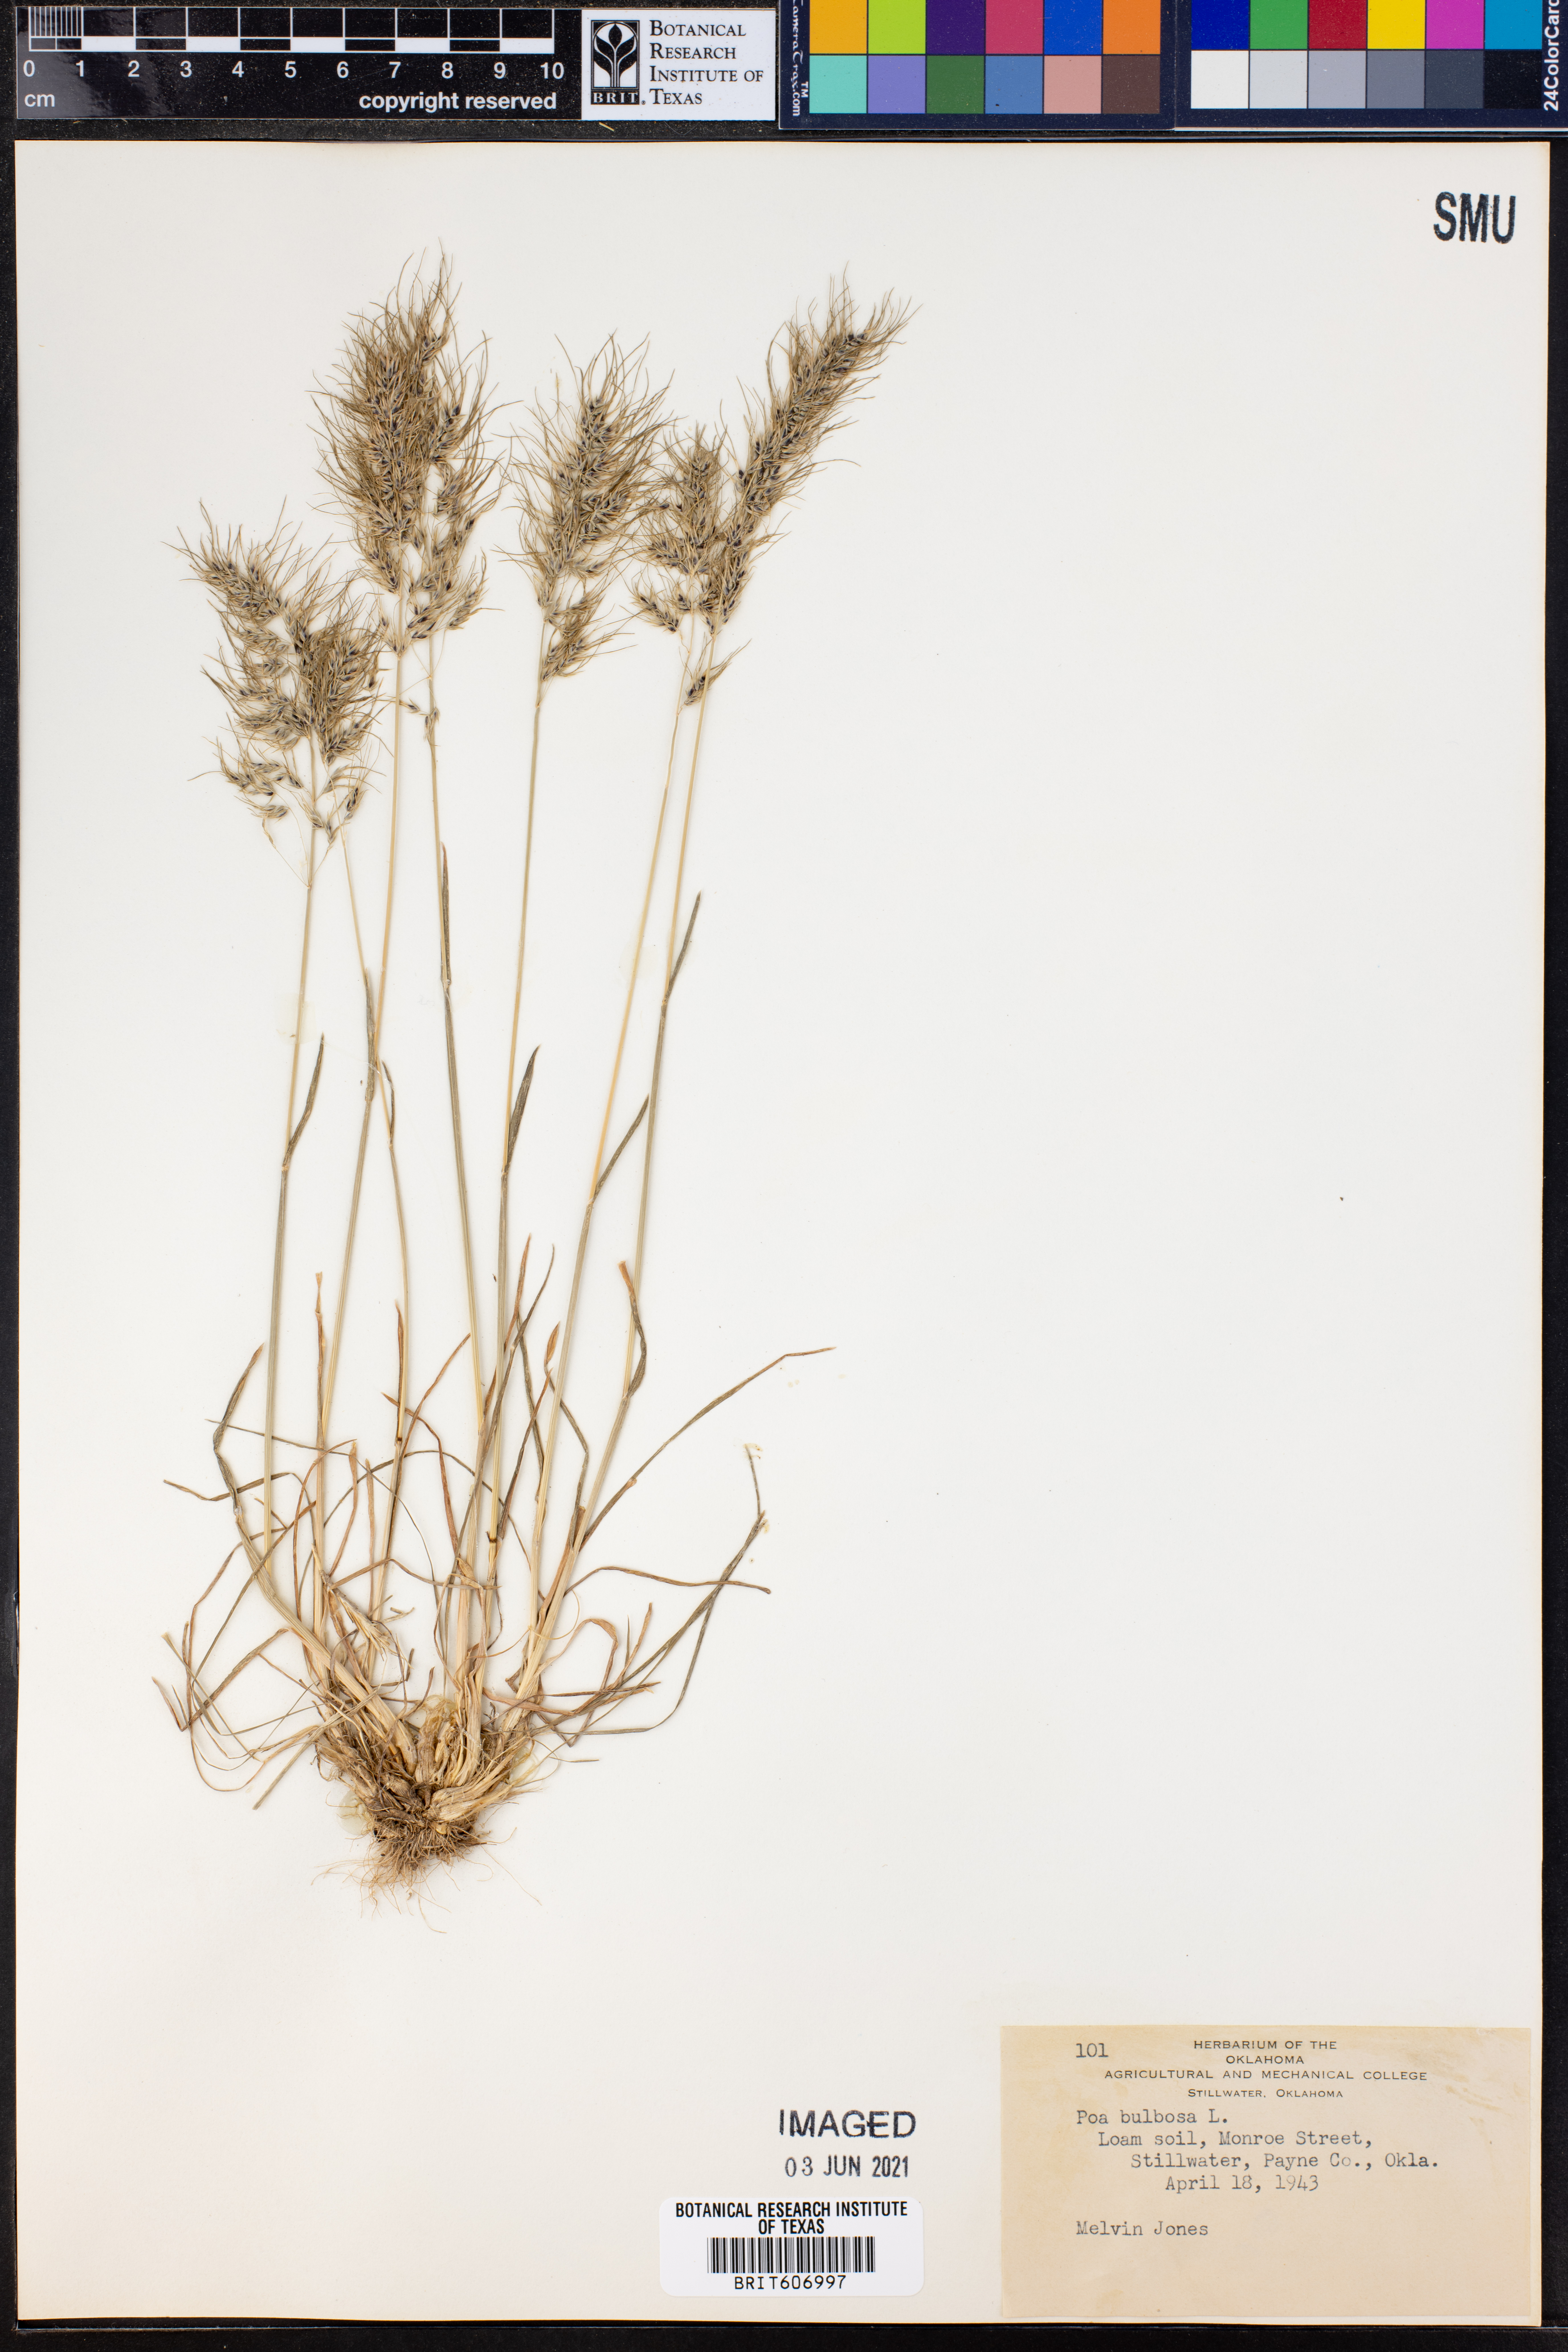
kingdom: Plantae
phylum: Tracheophyta
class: Liliopsida
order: Poales
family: Poaceae
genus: Poa
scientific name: Poa bulbosa
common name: Bulbous bluegrass
